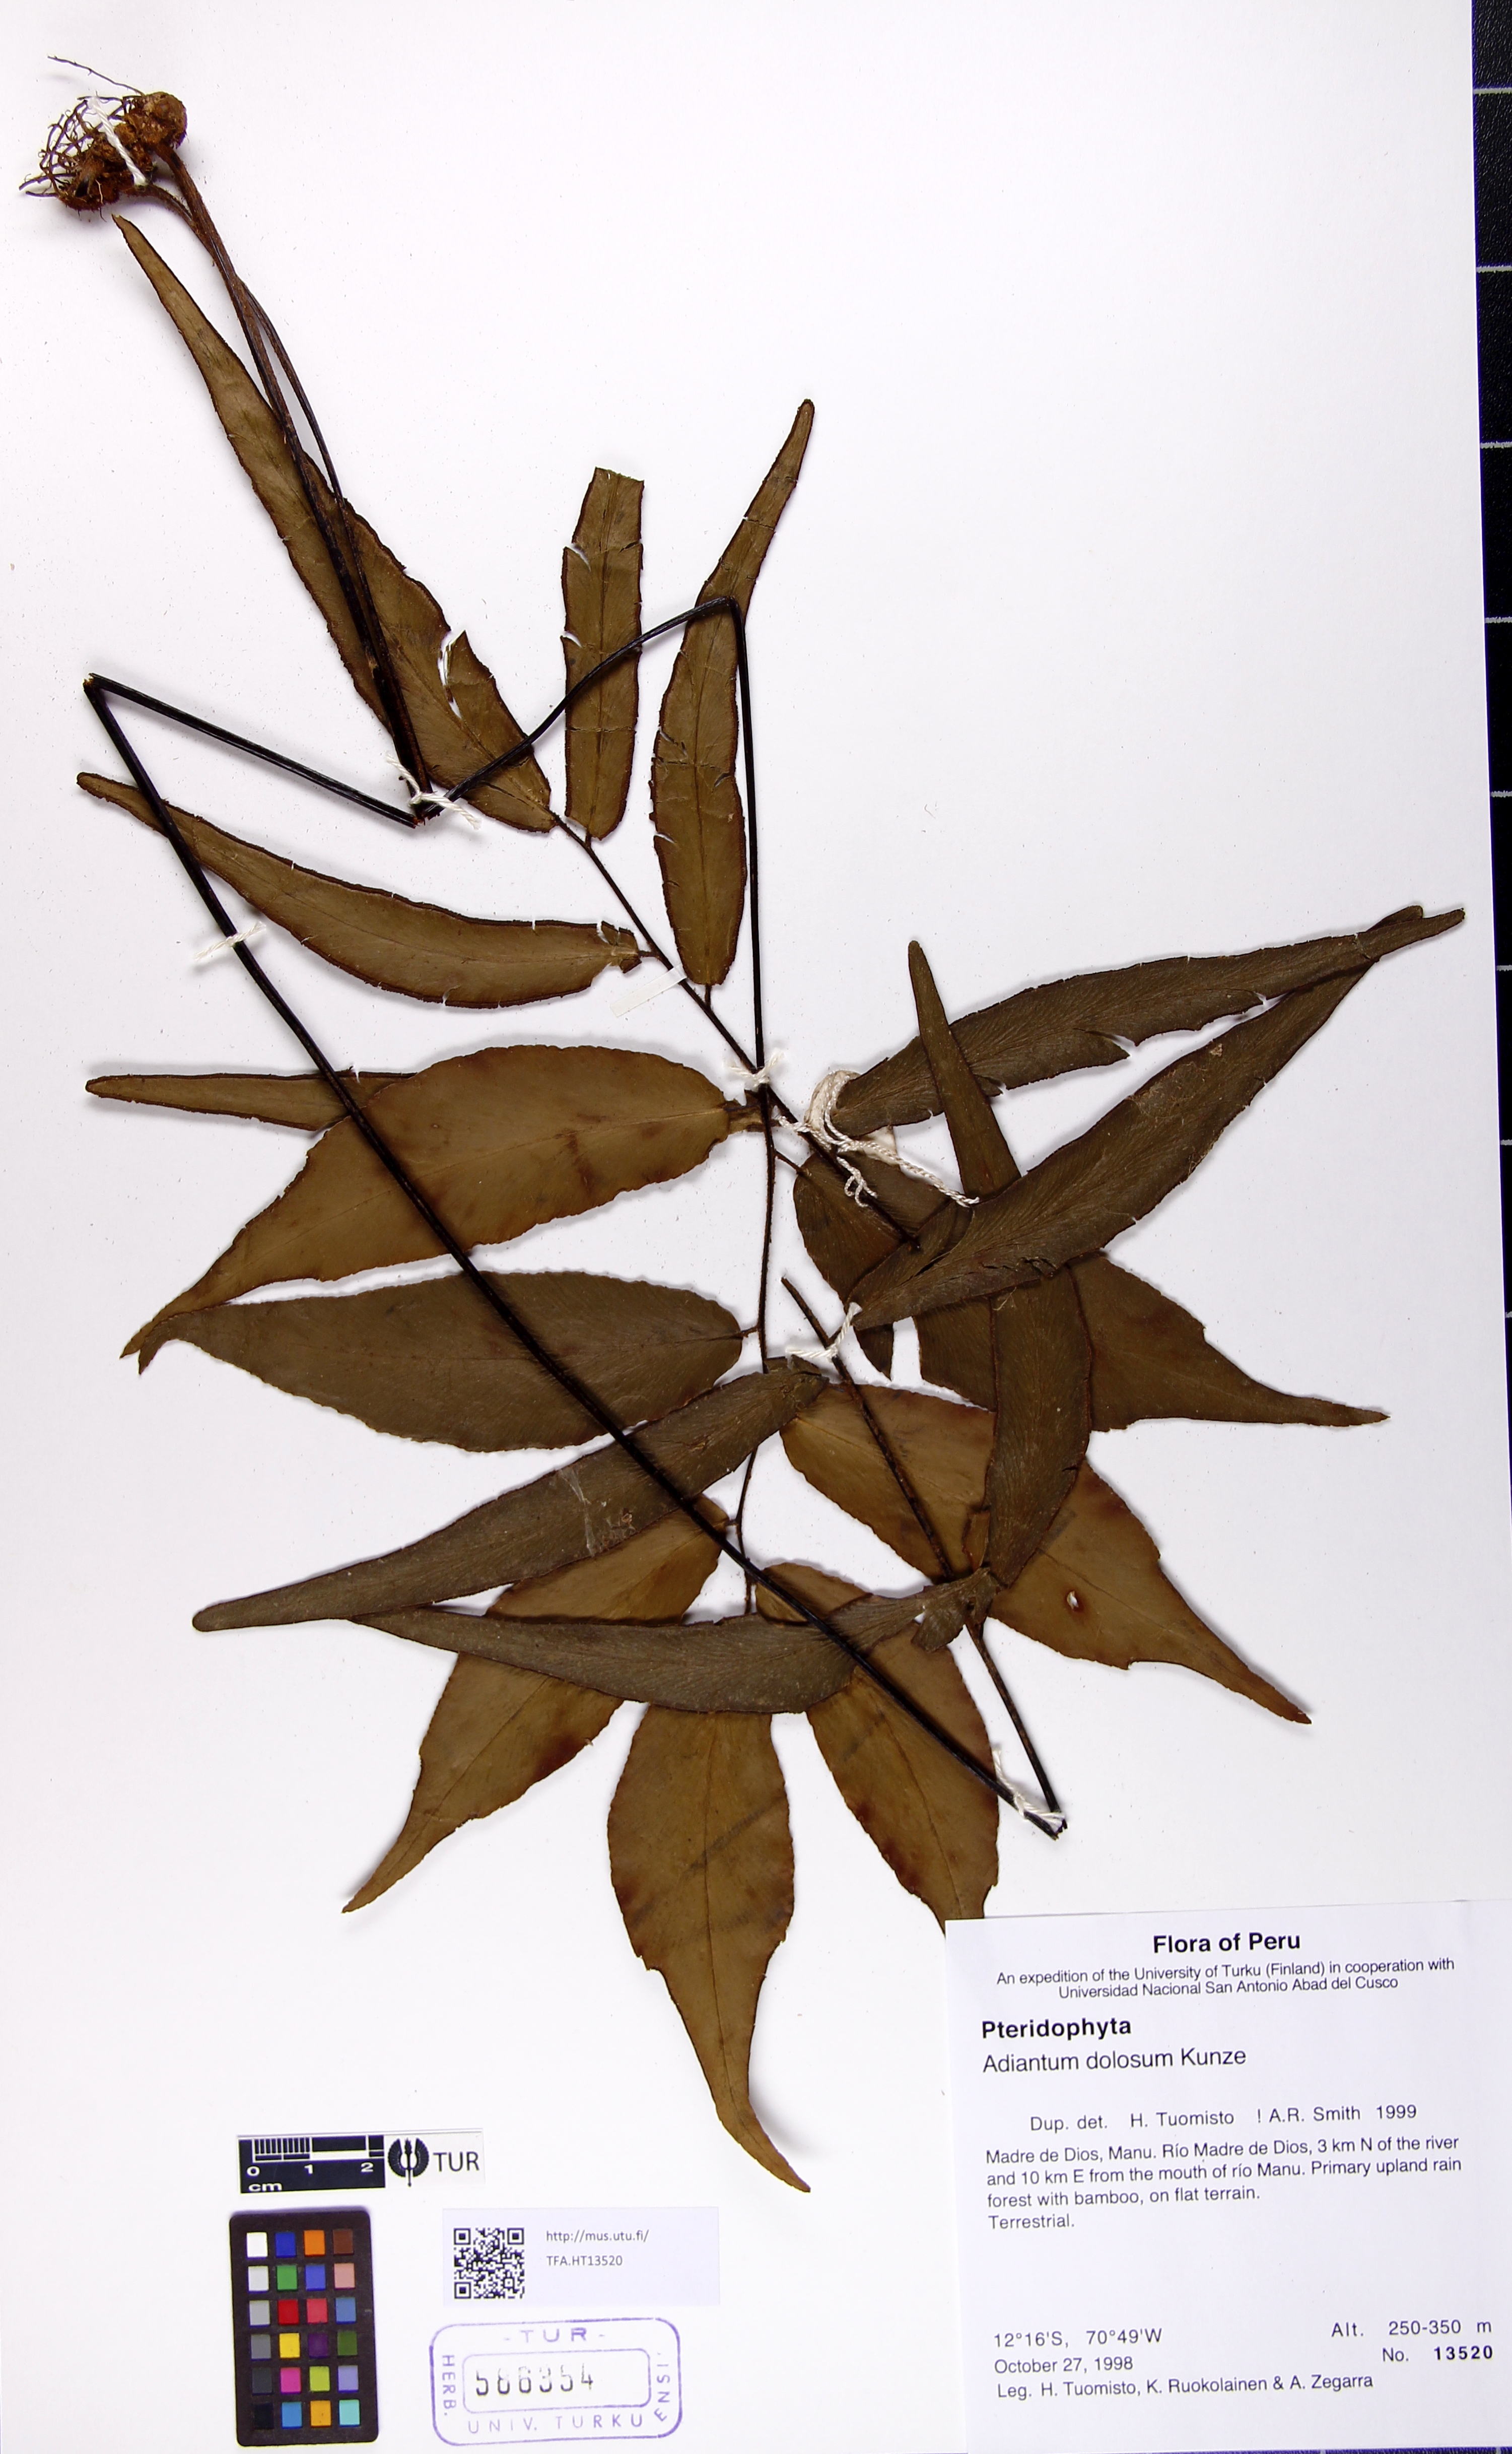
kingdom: Plantae
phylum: Tracheophyta
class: Polypodiopsida
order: Polypodiales
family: Pteridaceae
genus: Adiantum
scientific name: Adiantum dolosum
